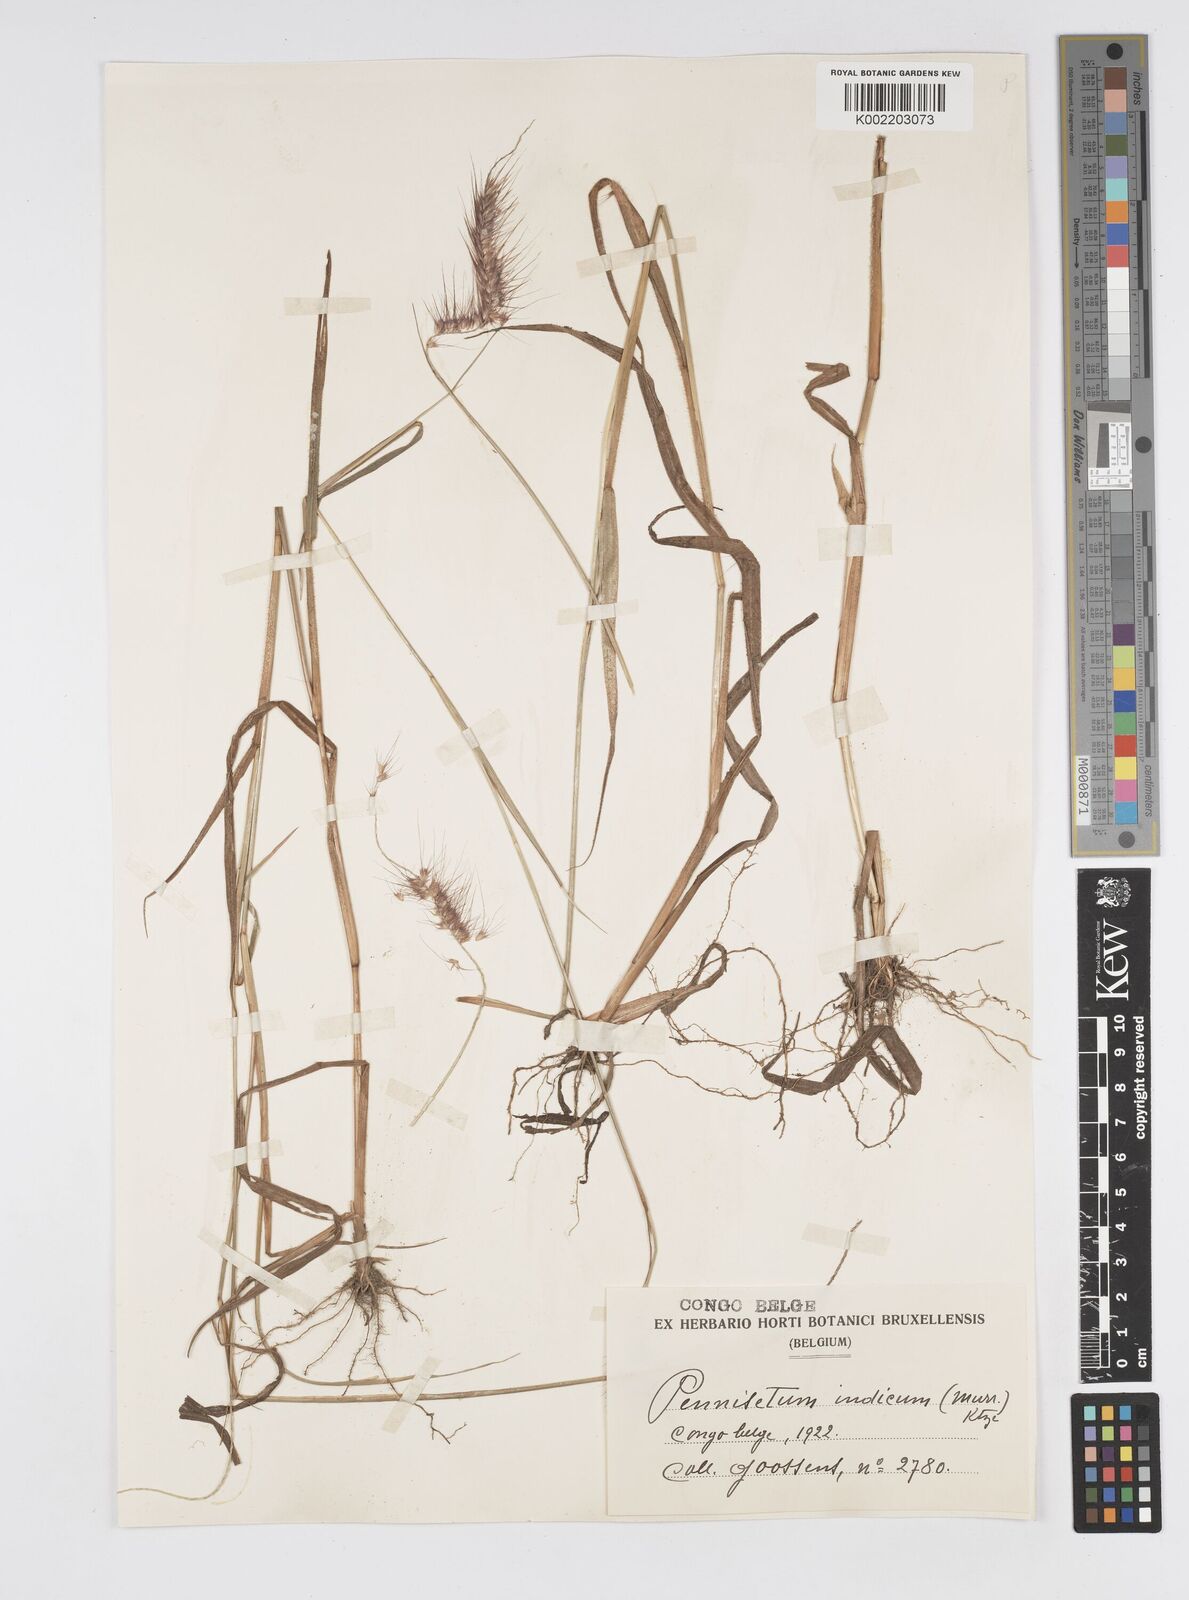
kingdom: Plantae
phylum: Tracheophyta
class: Liliopsida
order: Poales
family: Poaceae
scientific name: Poaceae
